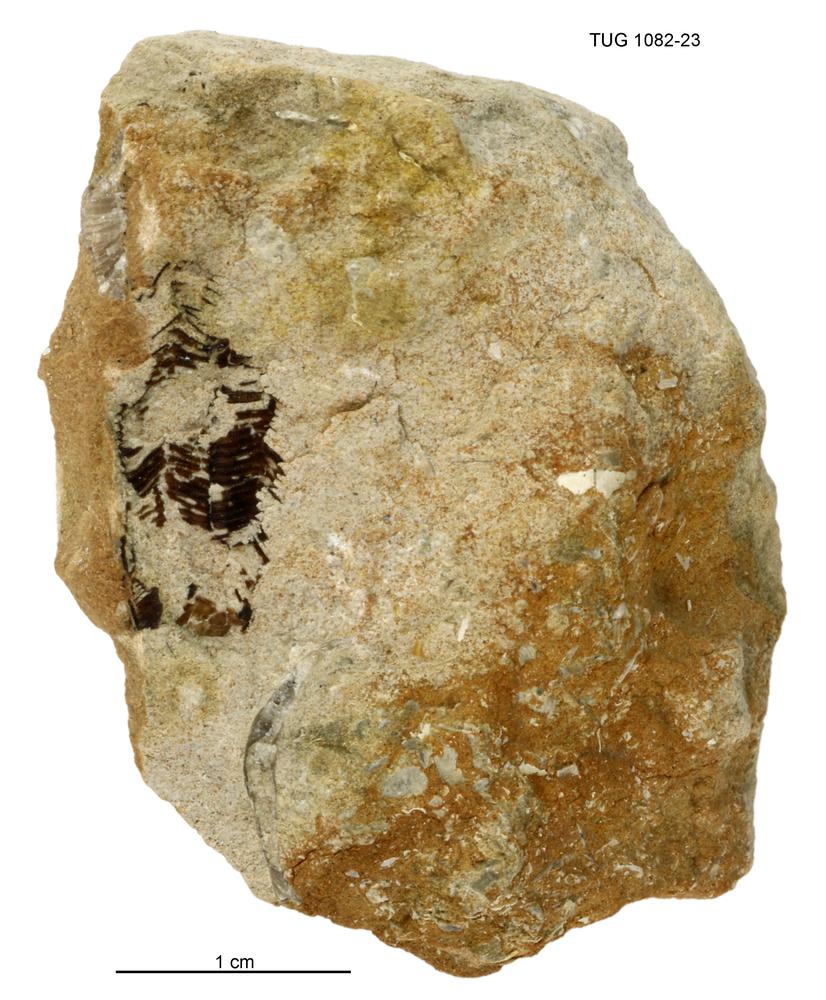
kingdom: Animalia
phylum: Cnidaria
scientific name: Cnidaria
